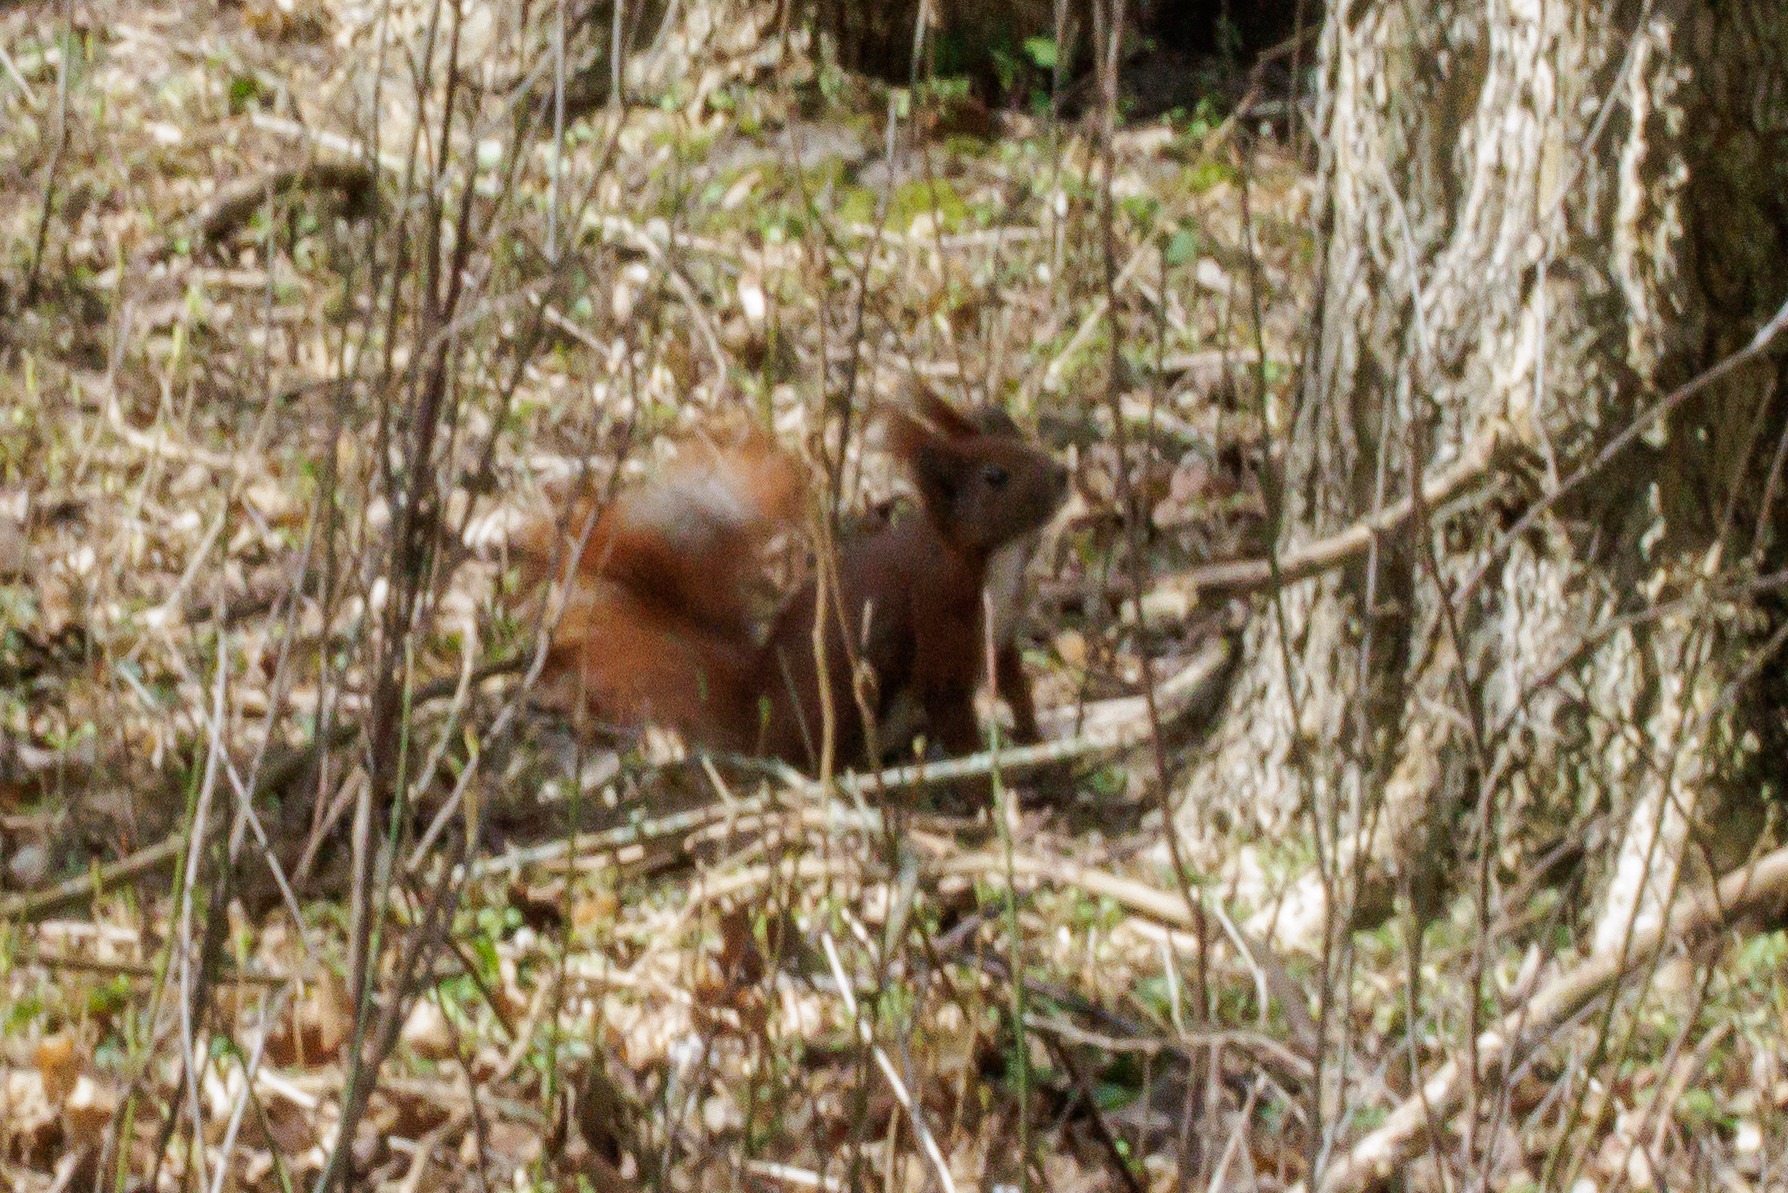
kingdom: Animalia
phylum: Chordata
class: Mammalia
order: Rodentia
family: Sciuridae
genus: Sciurus
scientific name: Sciurus vulgaris
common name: Egern
